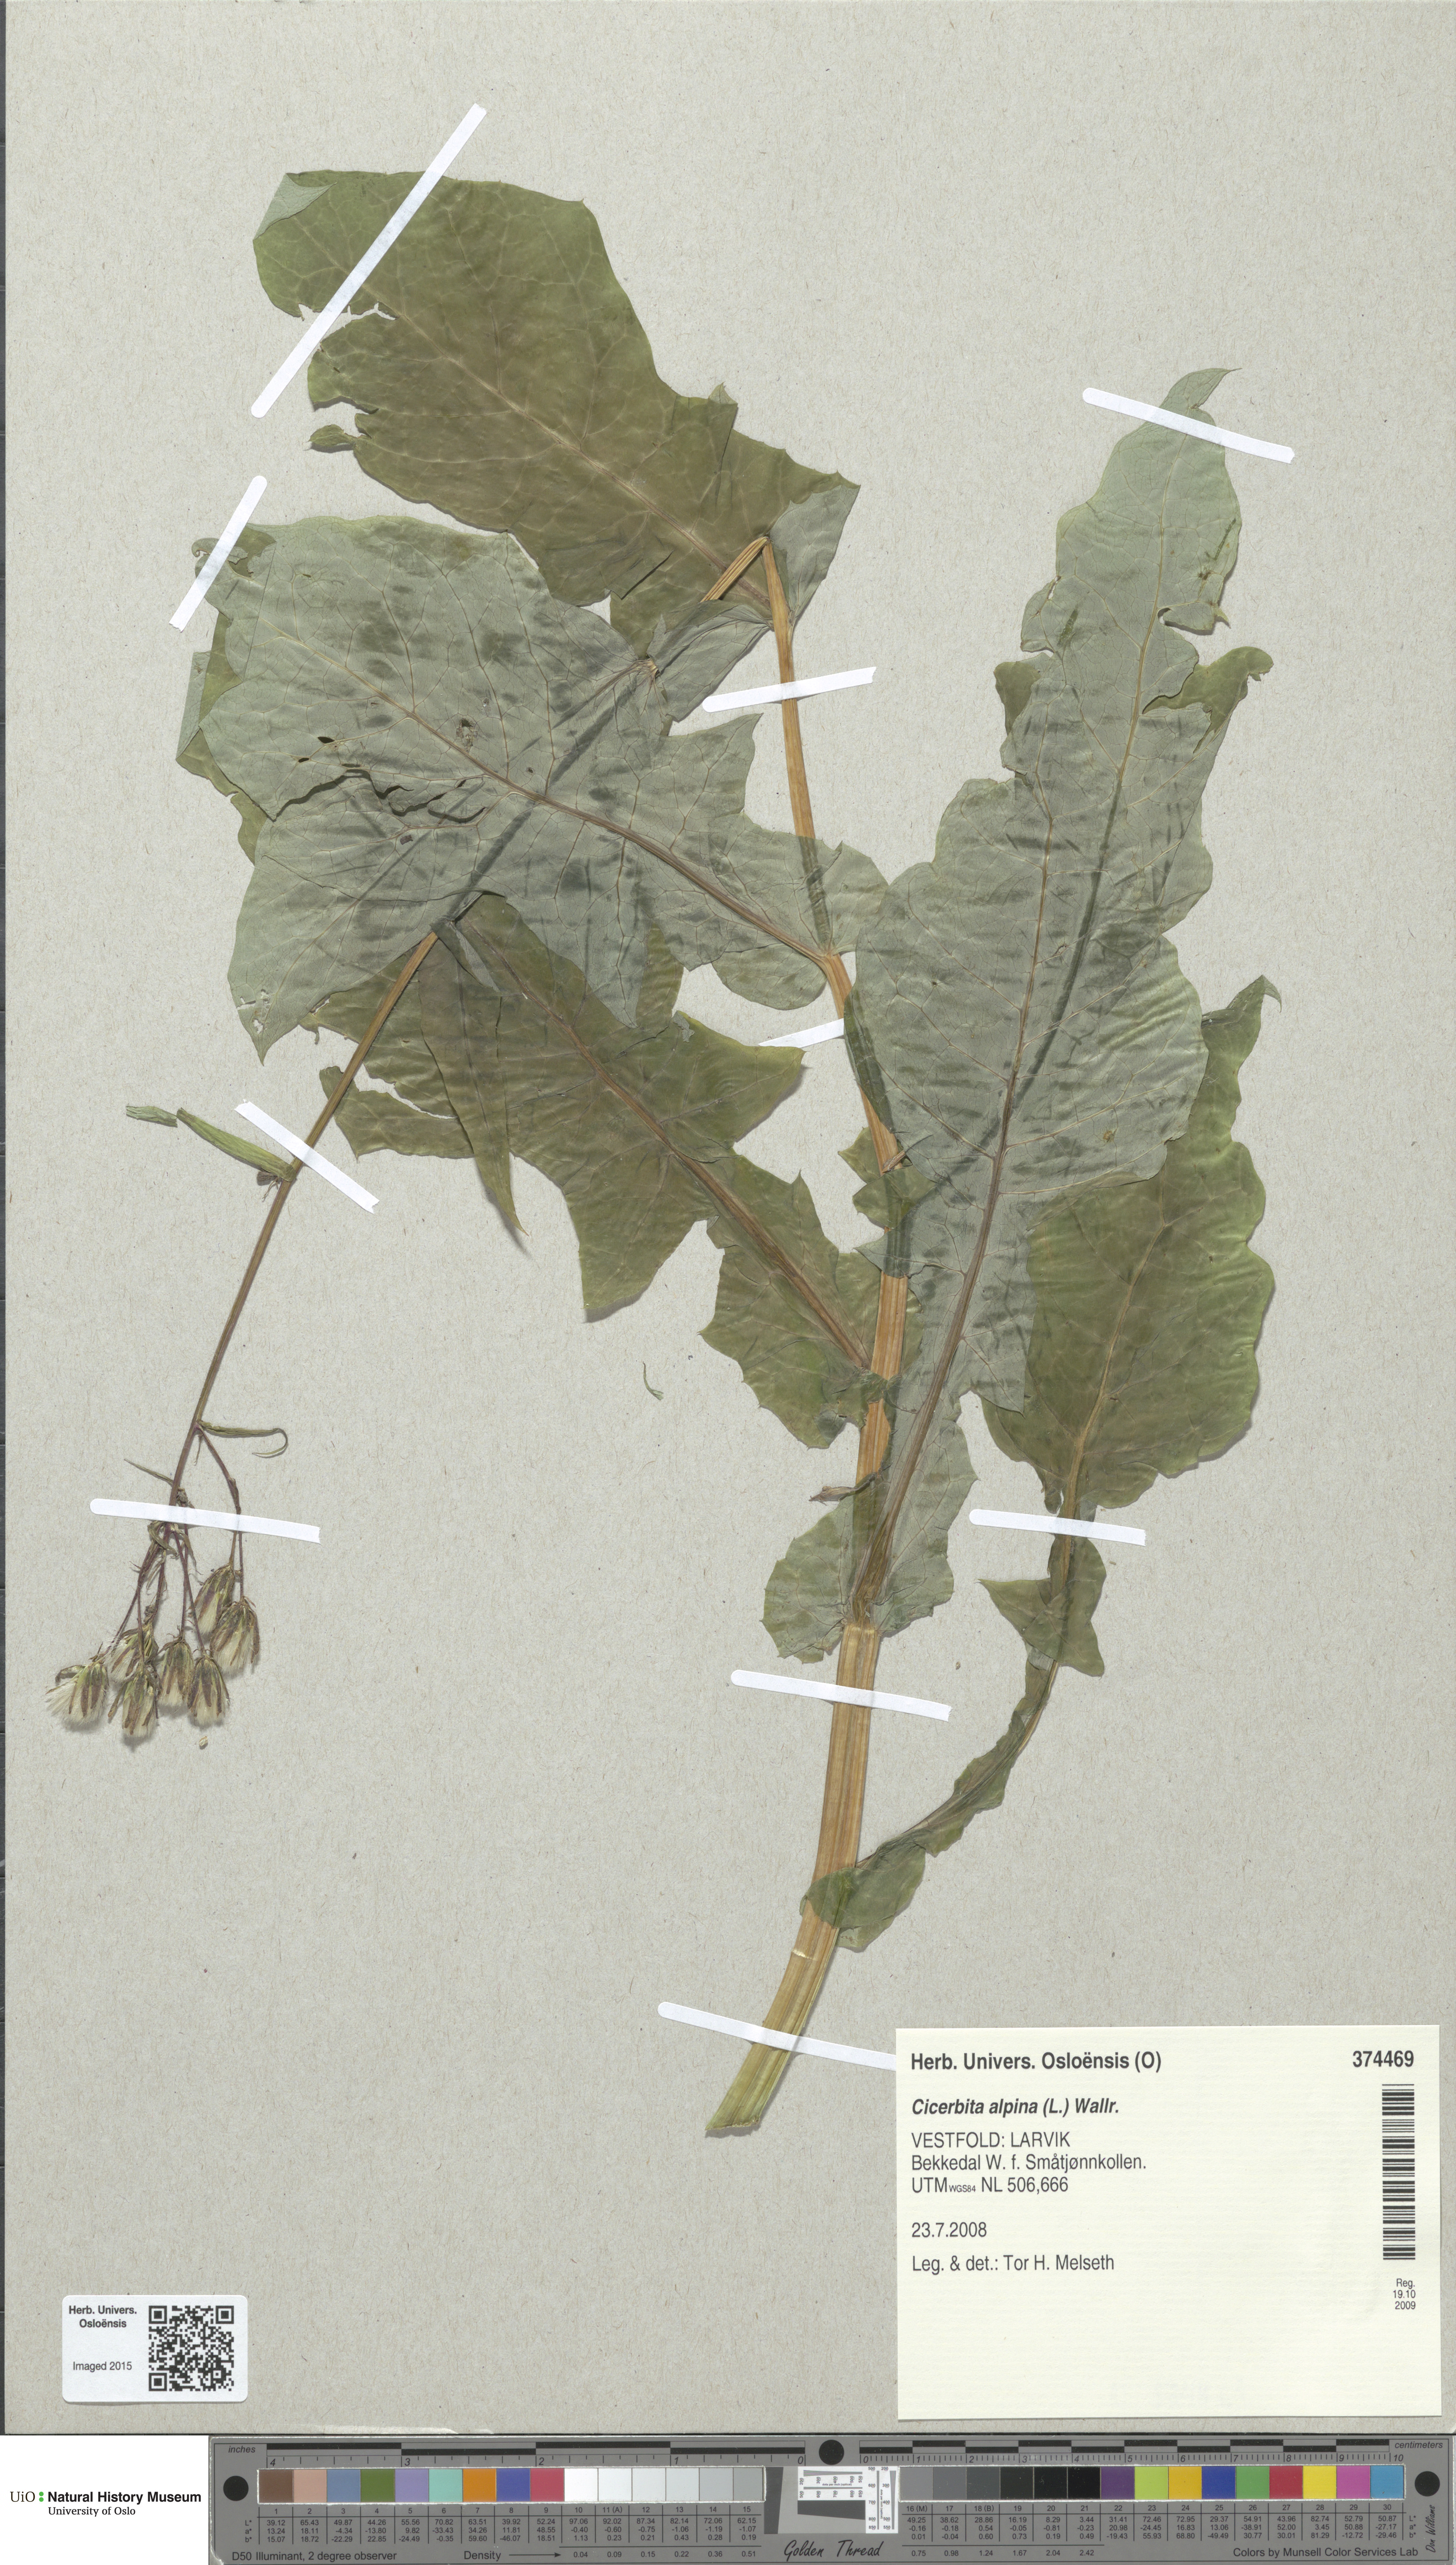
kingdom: Plantae
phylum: Tracheophyta
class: Magnoliopsida
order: Asterales
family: Asteraceae
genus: Cicerbita
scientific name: Cicerbita alpina
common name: Alpine blue-sow-thistle
